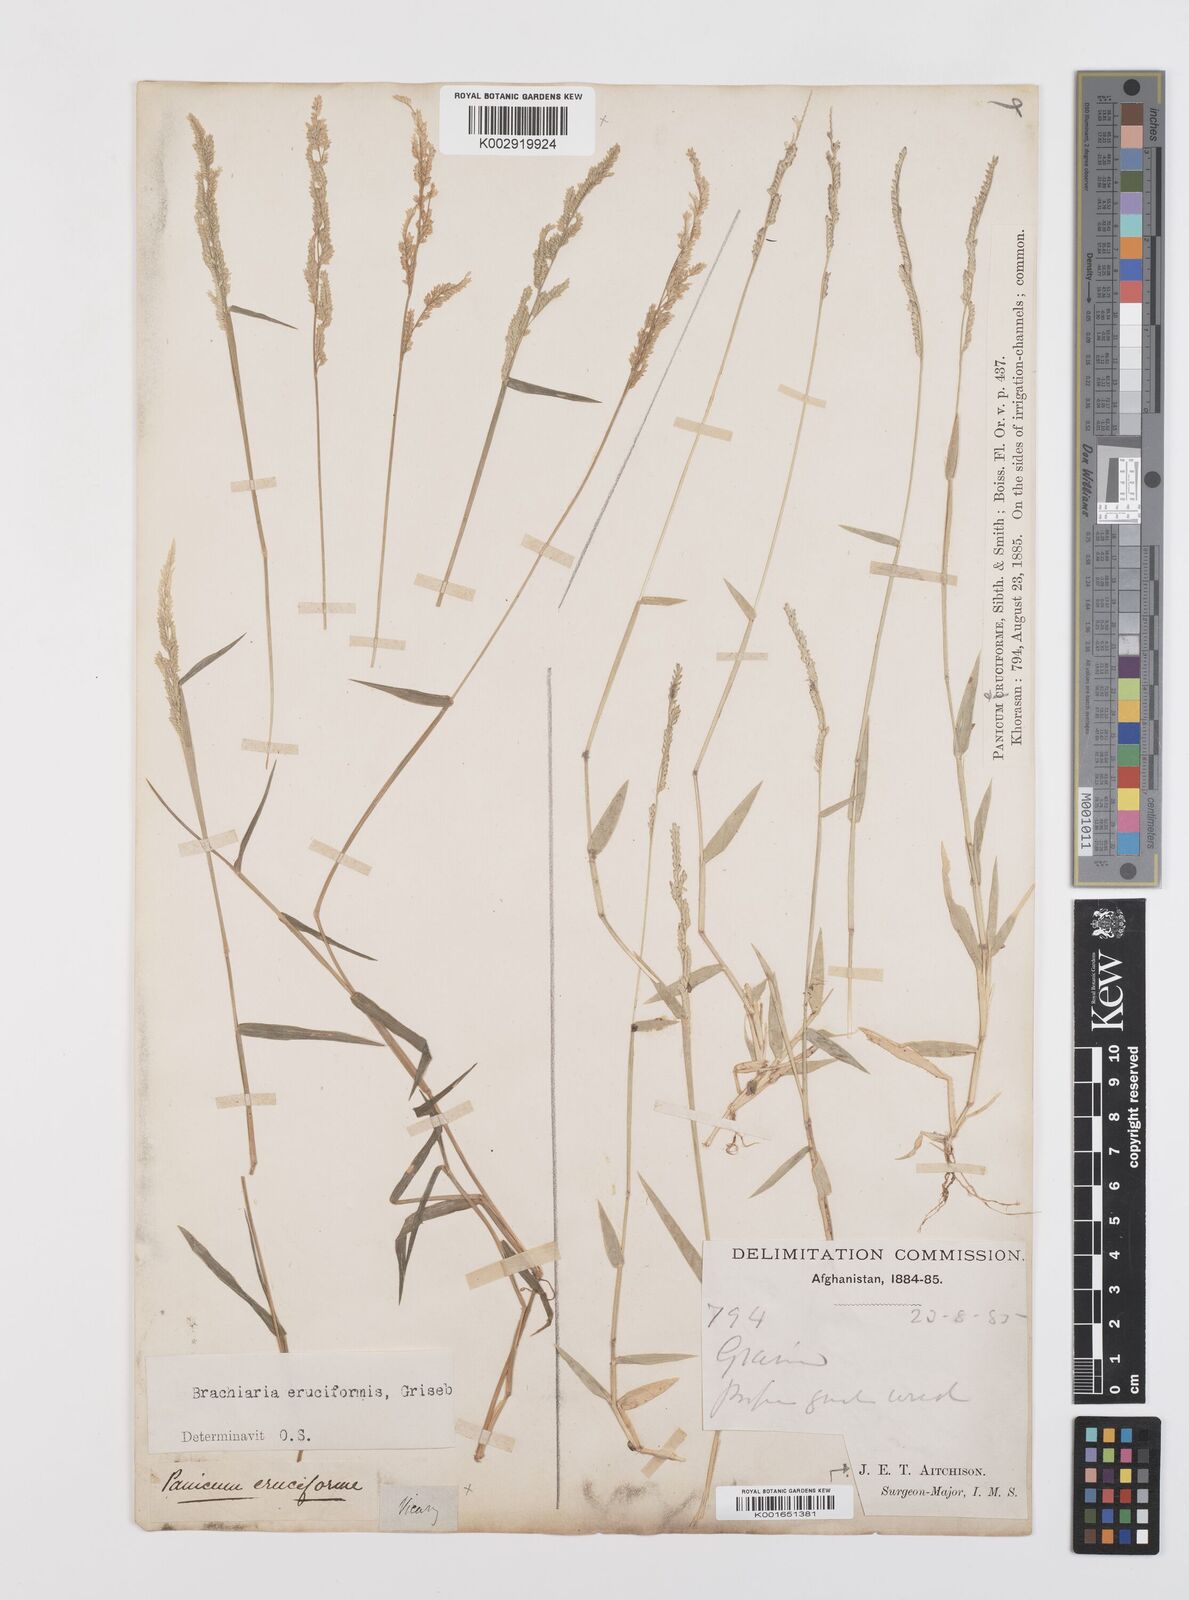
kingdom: Plantae
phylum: Tracheophyta
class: Liliopsida
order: Poales
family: Poaceae
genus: Moorochloa
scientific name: Moorochloa eruciformis
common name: Sweet signalgrass
